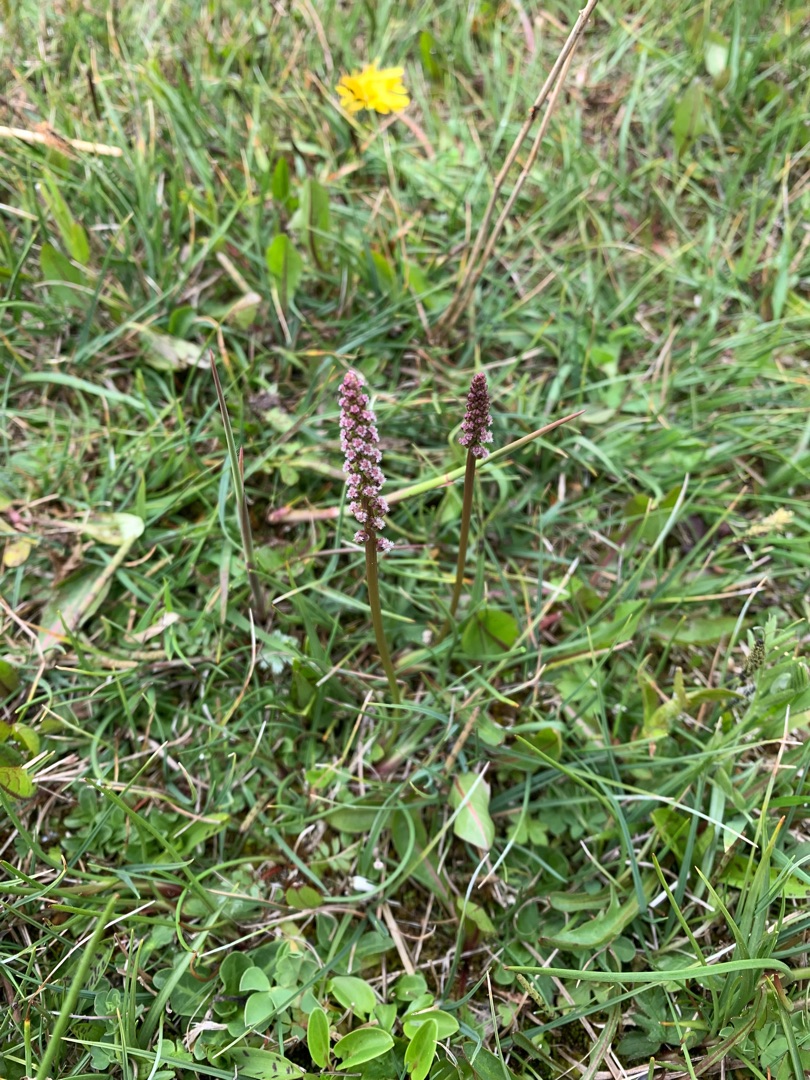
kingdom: Plantae
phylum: Tracheophyta
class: Liliopsida
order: Alismatales
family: Juncaginaceae
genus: Triglochin
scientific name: Triglochin maritima
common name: Strand-trehage
